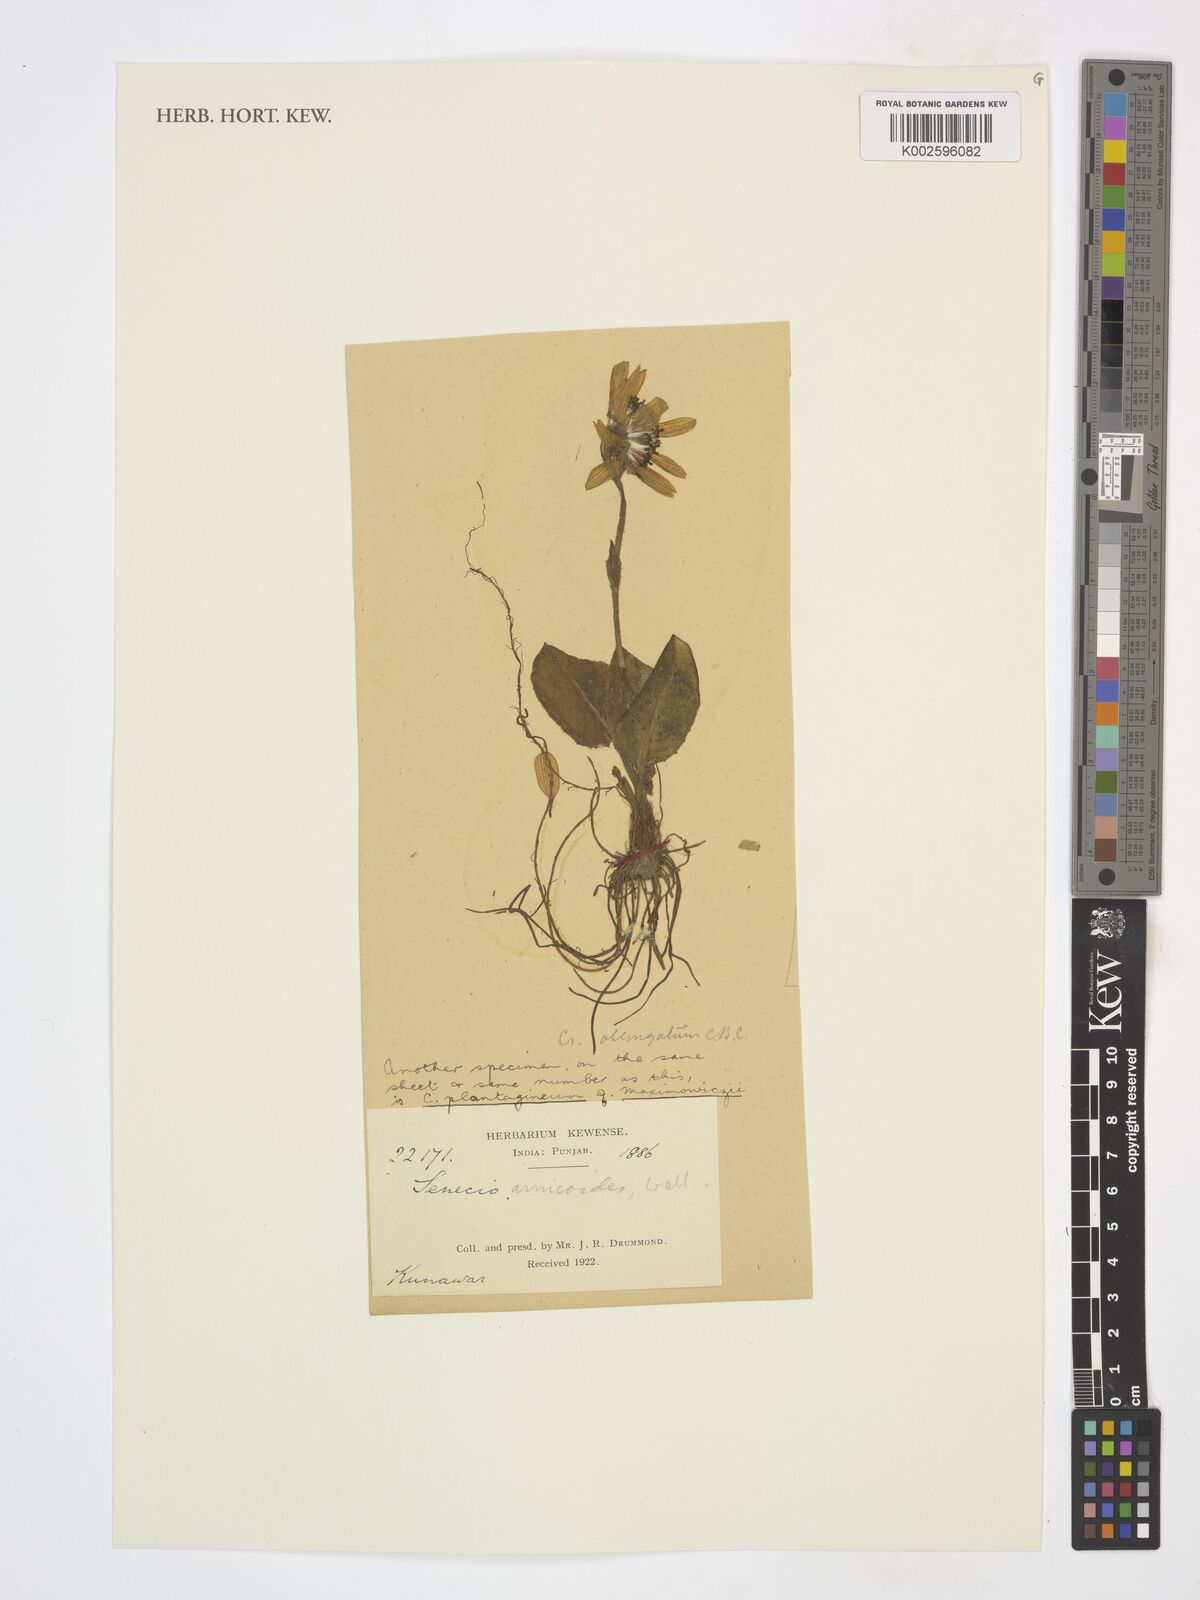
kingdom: Plantae
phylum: Tracheophyta
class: Magnoliopsida
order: Asterales
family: Asteraceae
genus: Haplosticha
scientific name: Haplosticha arnicoides
